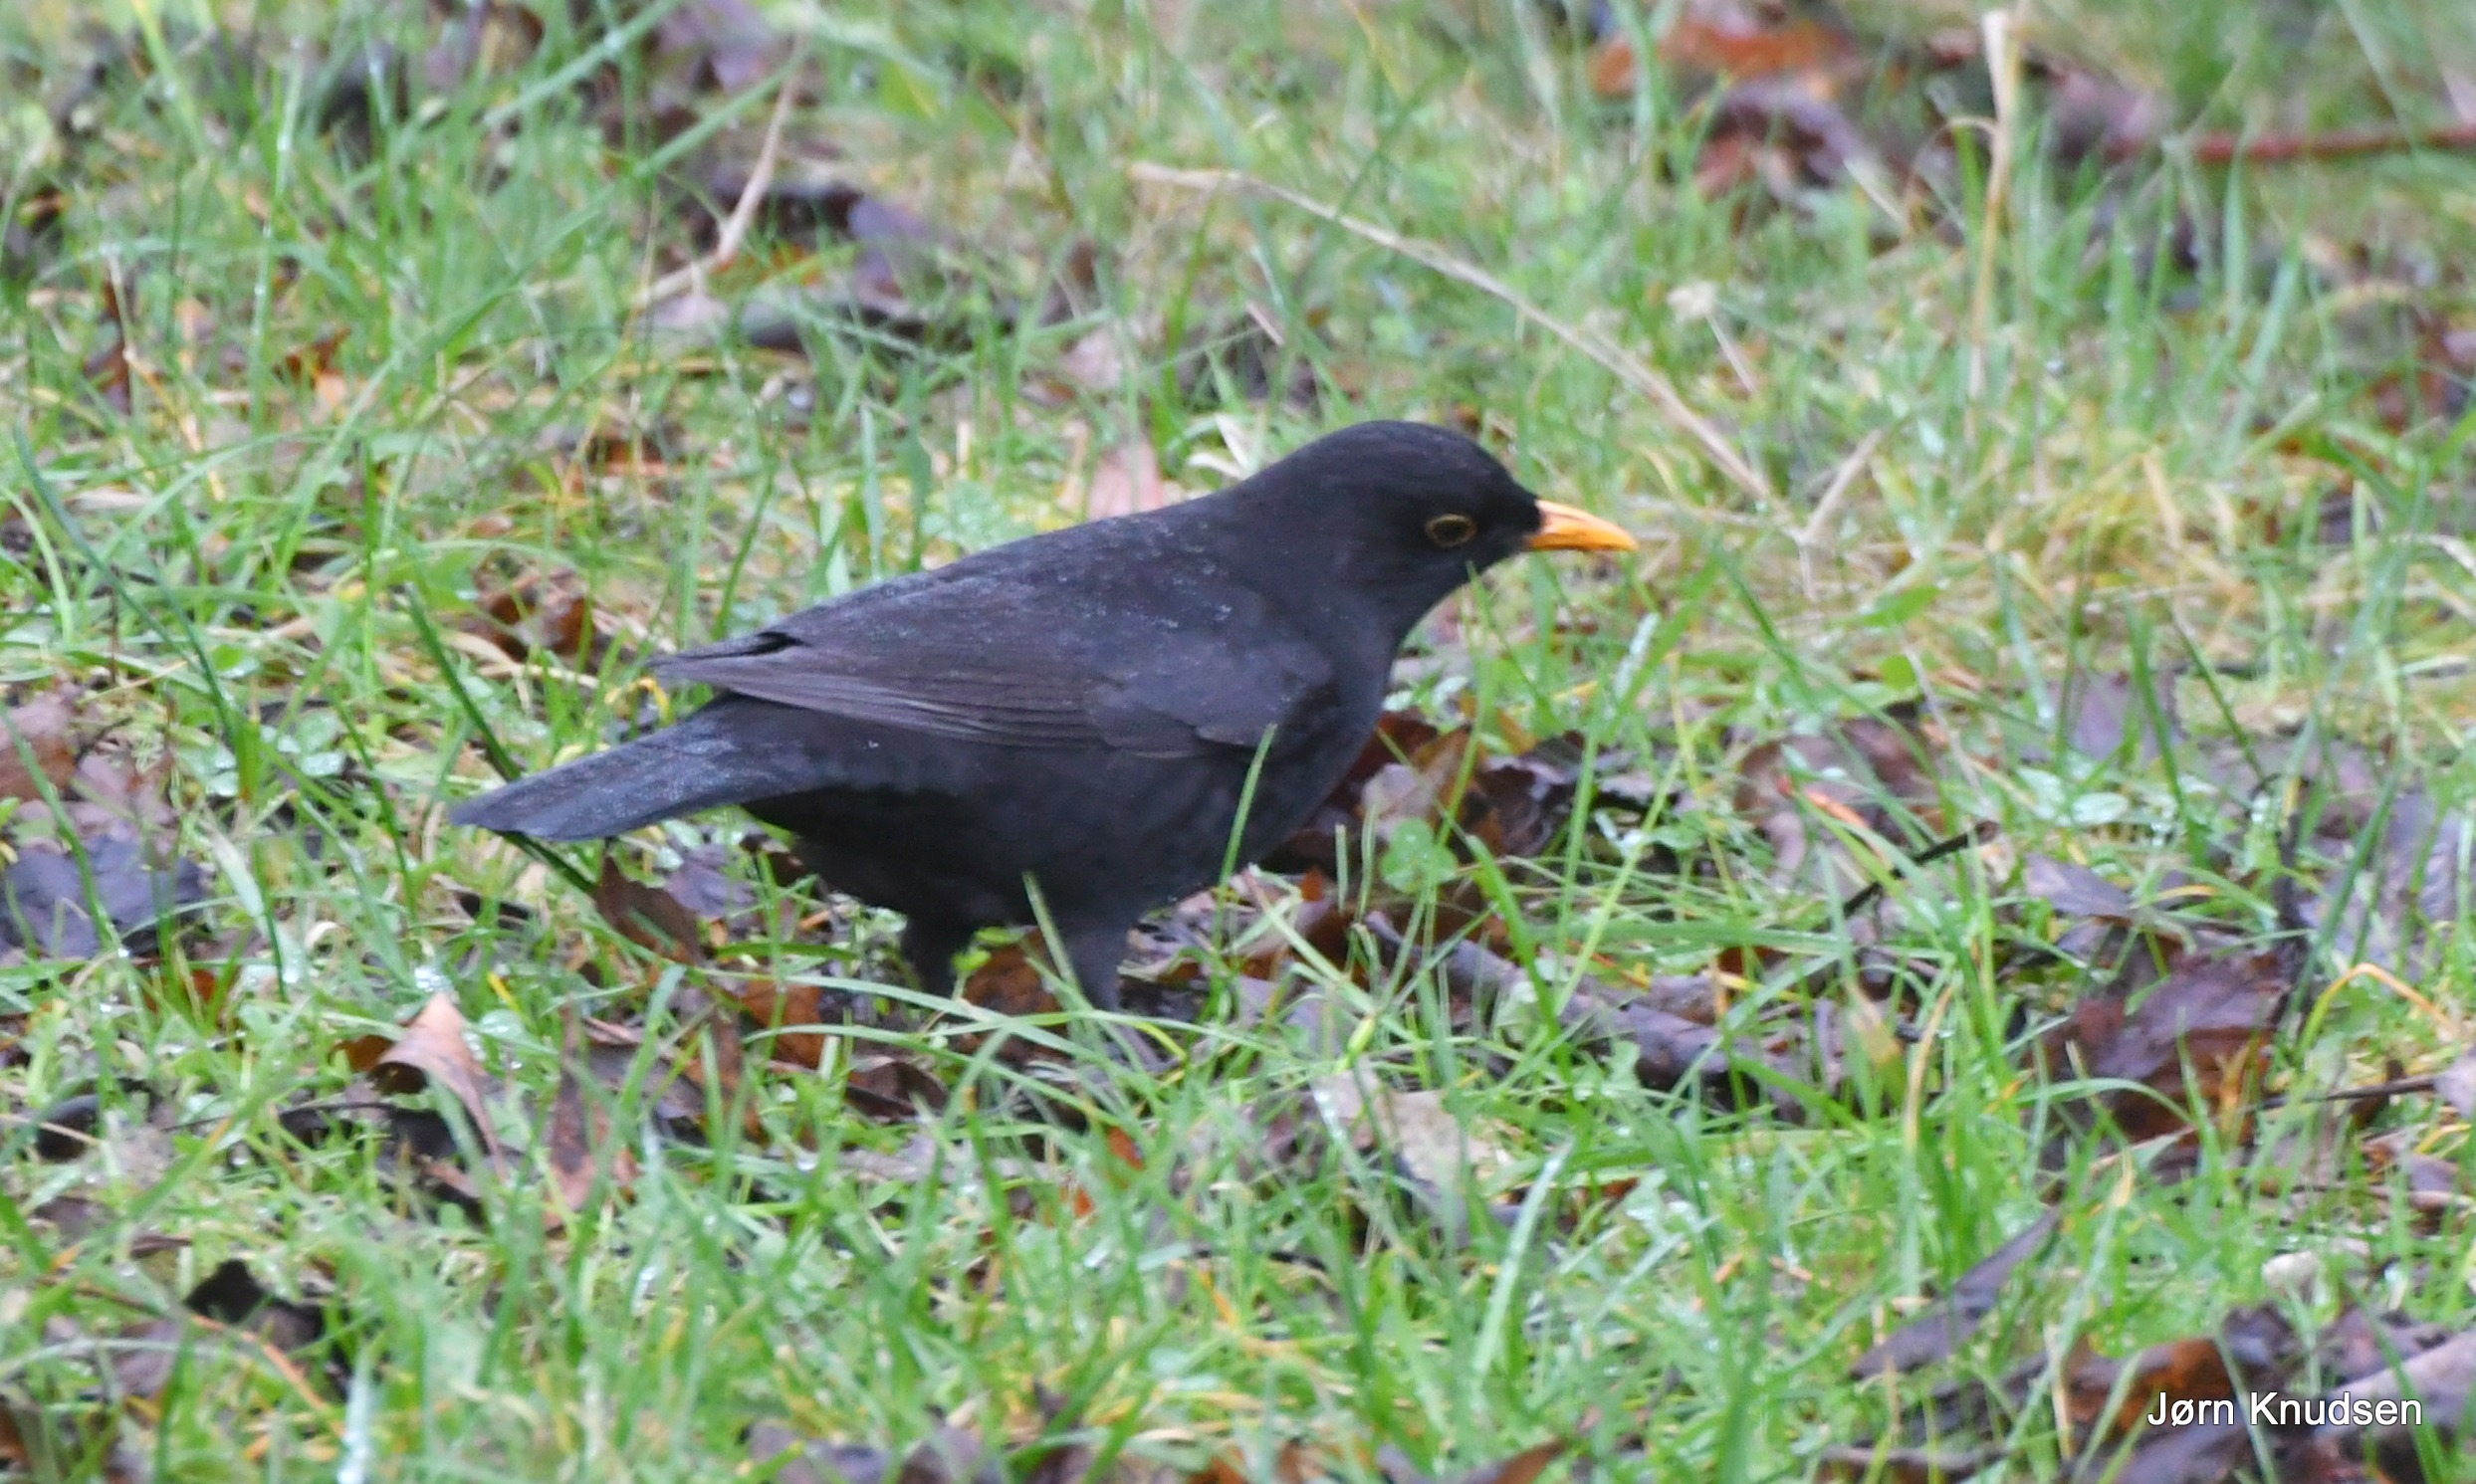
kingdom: Animalia
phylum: Chordata
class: Aves
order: Passeriformes
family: Turdidae
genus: Turdus
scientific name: Turdus merula
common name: Solsort
